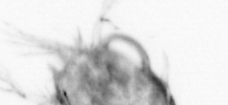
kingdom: Animalia
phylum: Arthropoda
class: Copepoda
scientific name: Copepoda
